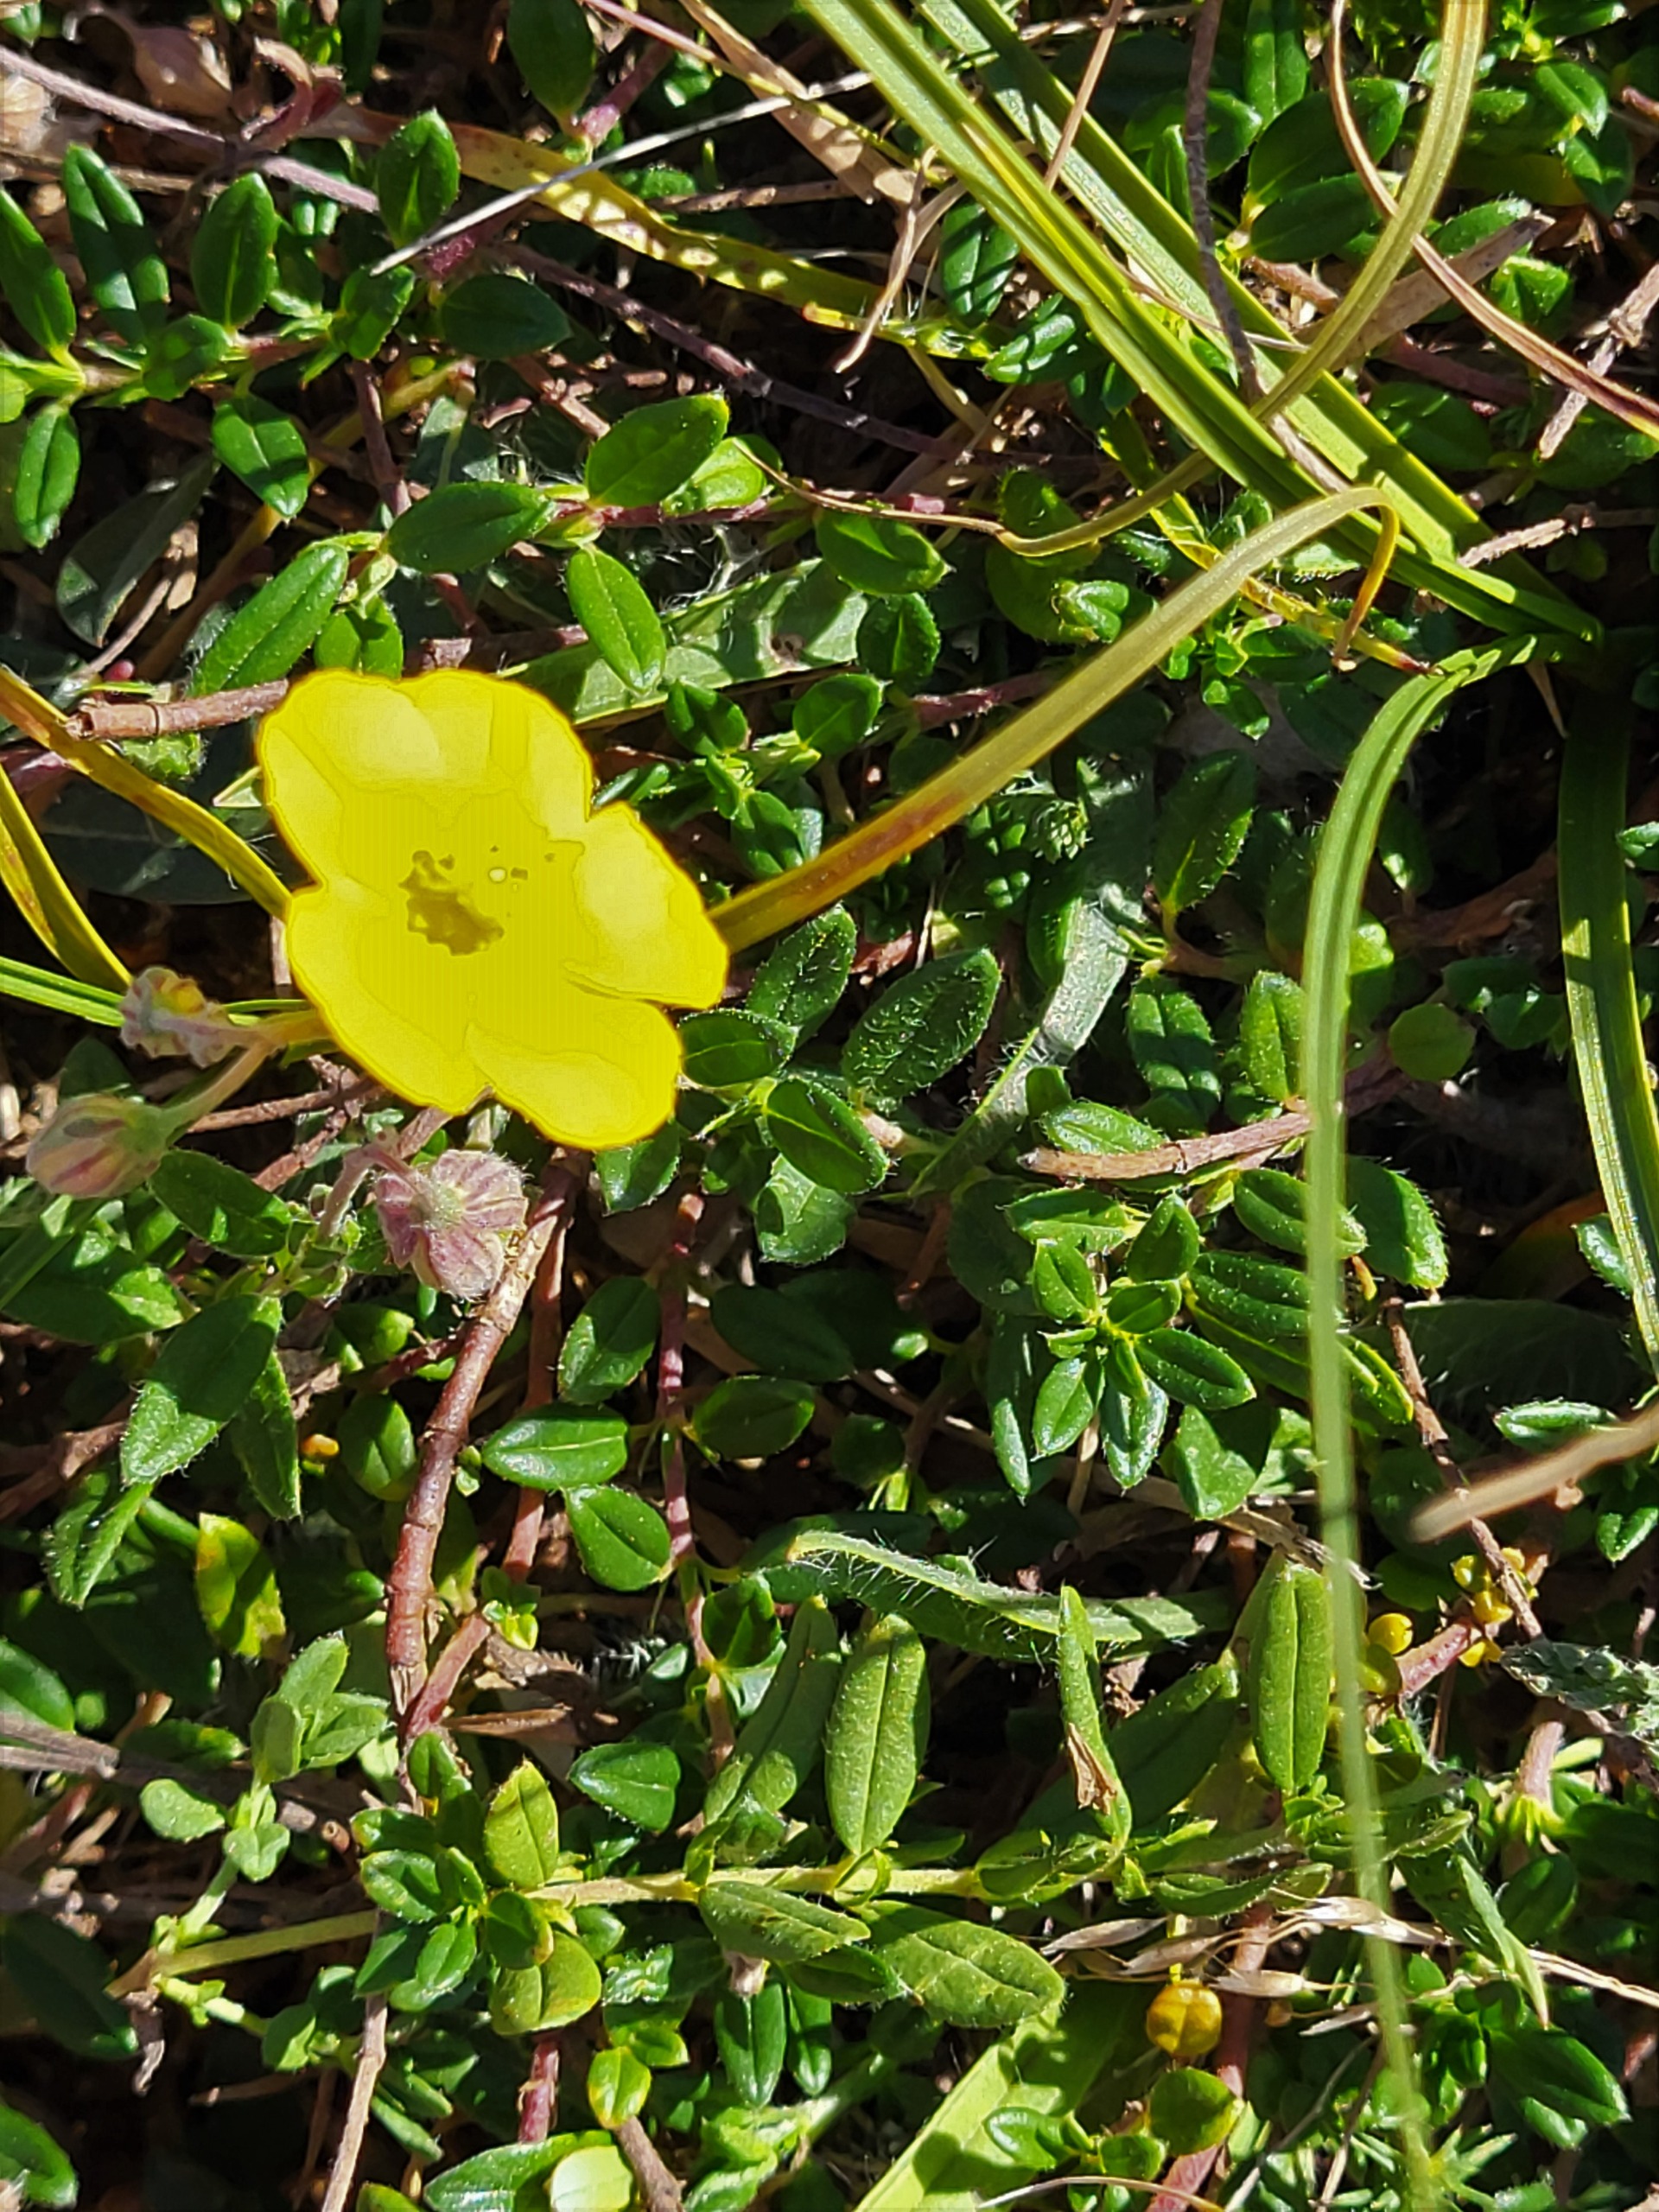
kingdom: Plantae
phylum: Tracheophyta
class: Magnoliopsida
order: Malvales
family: Cistaceae
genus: Helianthemum
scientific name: Helianthemum nummularium
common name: Soløje
